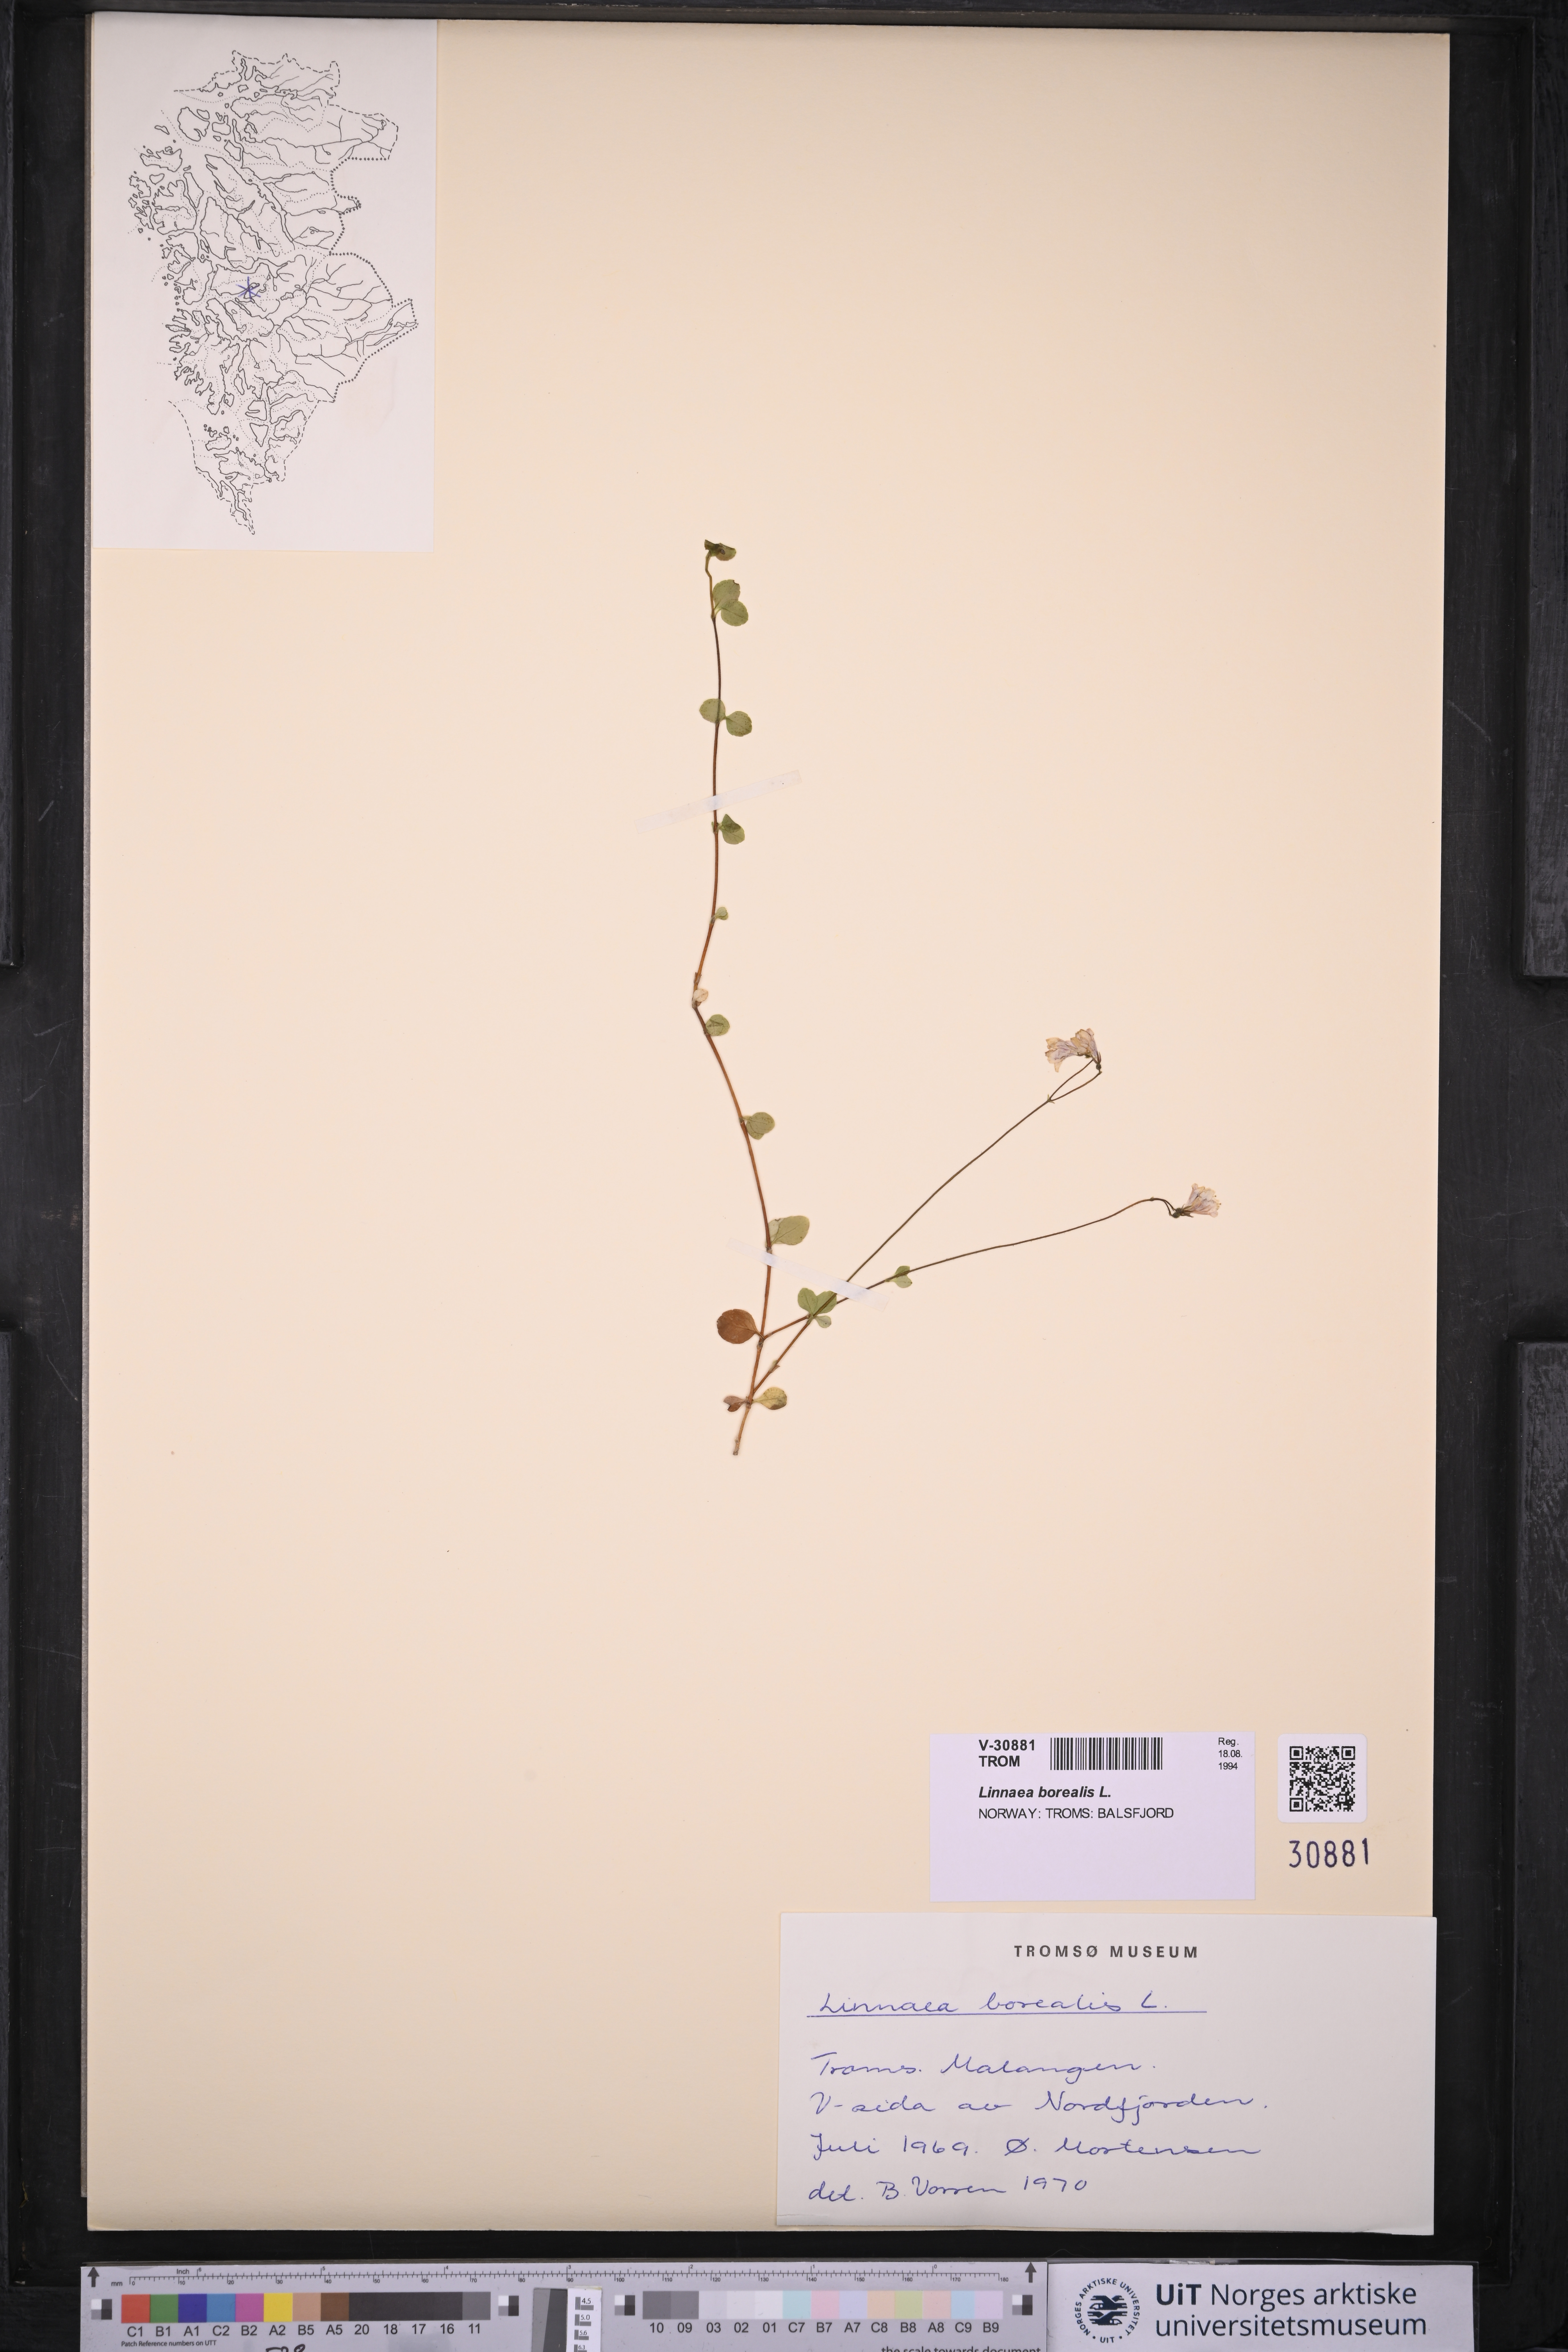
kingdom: Plantae
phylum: Tracheophyta
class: Magnoliopsida
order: Dipsacales
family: Caprifoliaceae
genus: Linnaea
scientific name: Linnaea borealis
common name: Twinflower
